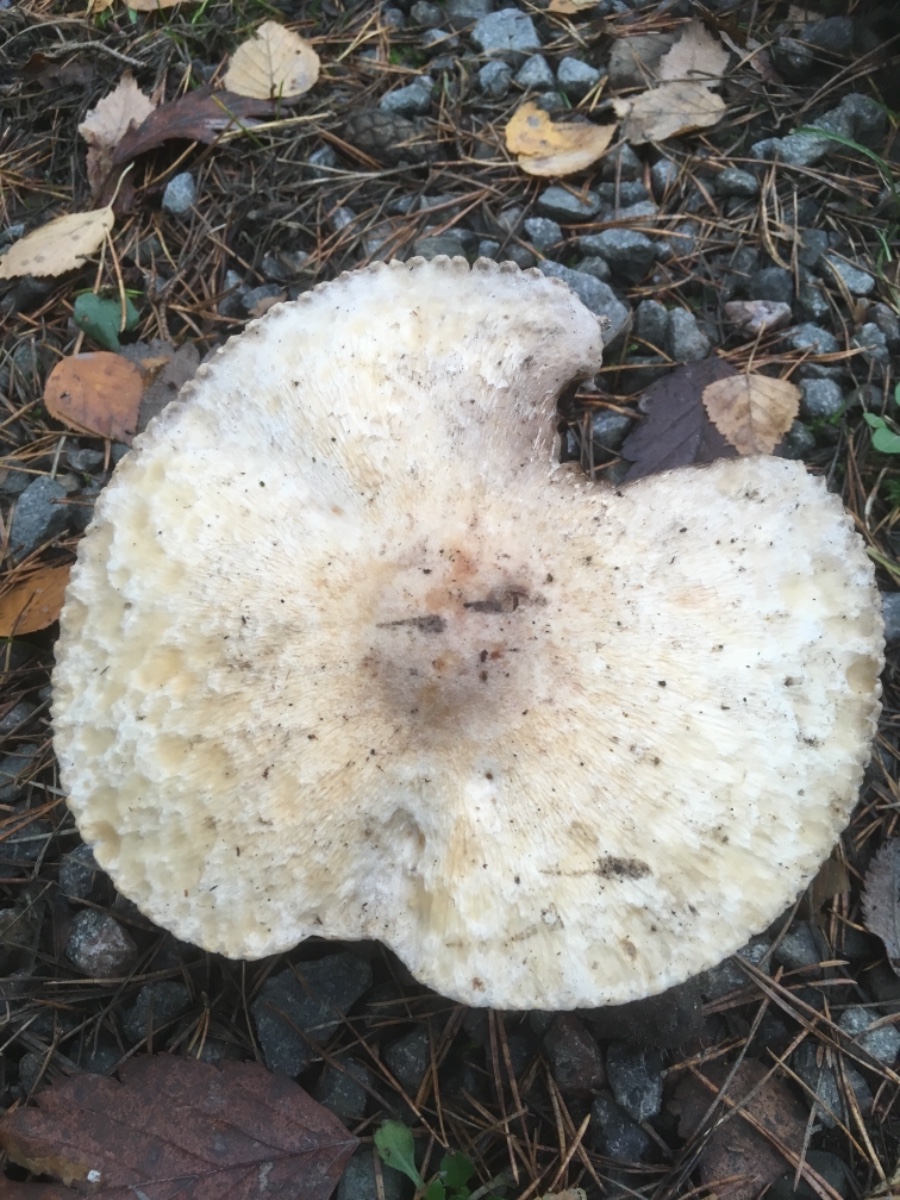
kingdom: Fungi
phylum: Basidiomycota
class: Agaricomycetes
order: Agaricales
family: Agaricaceae
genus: Agaricus
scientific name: Agaricus
